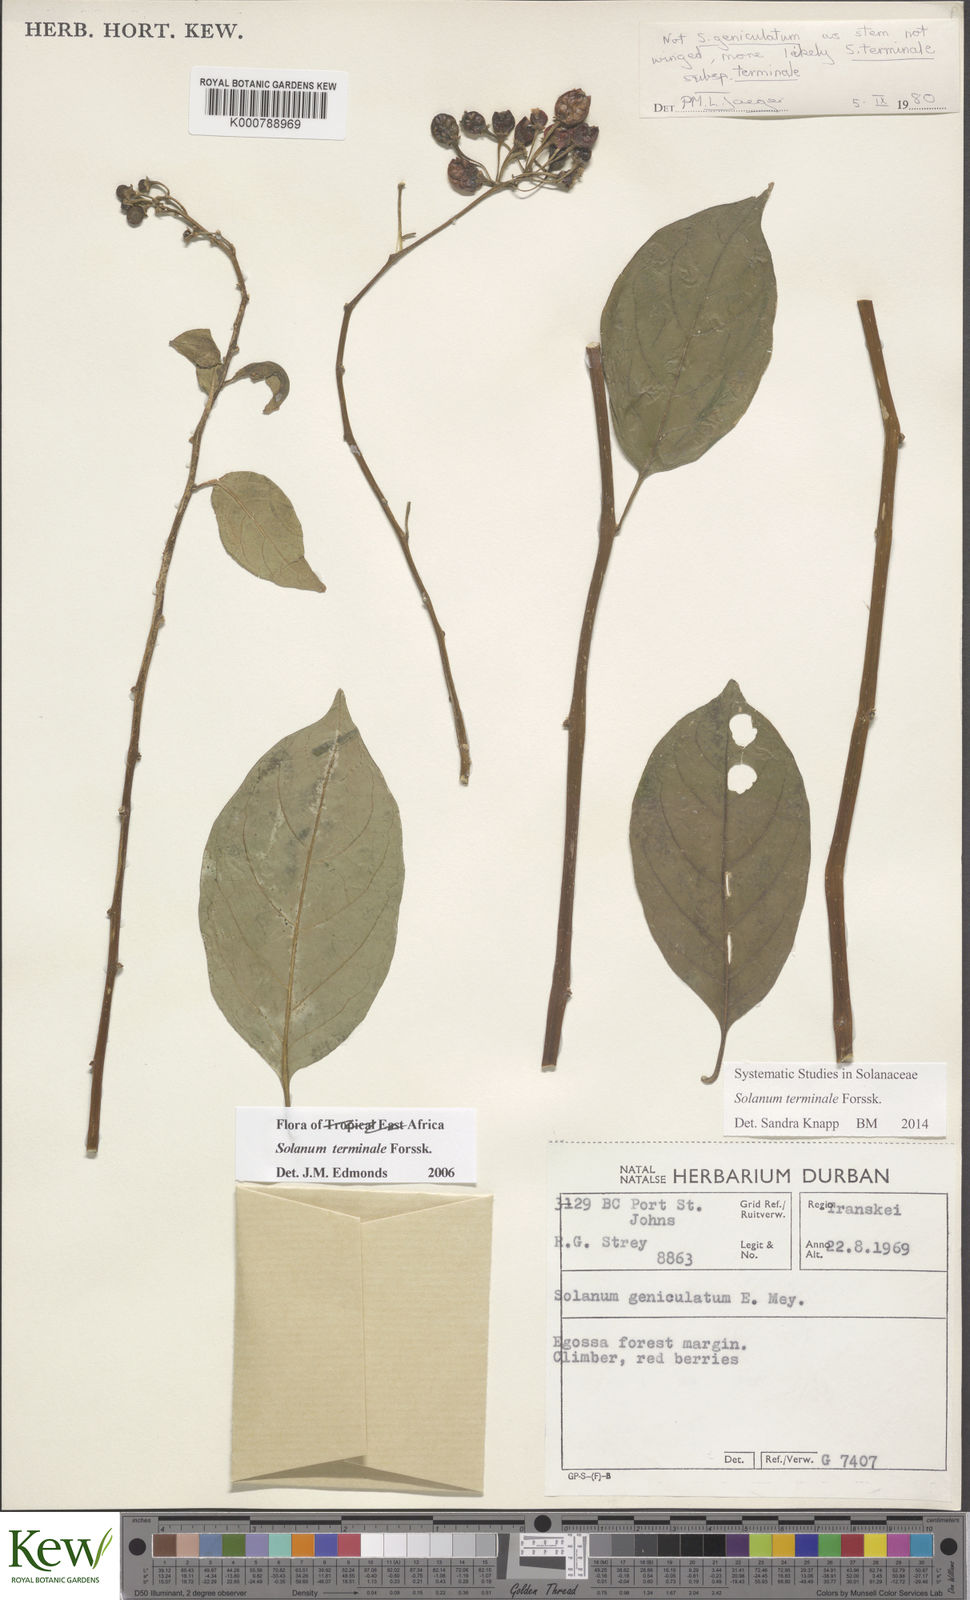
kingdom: Plantae
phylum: Tracheophyta
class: Magnoliopsida
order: Solanales
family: Solanaceae
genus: Solanum
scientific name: Solanum terminale
